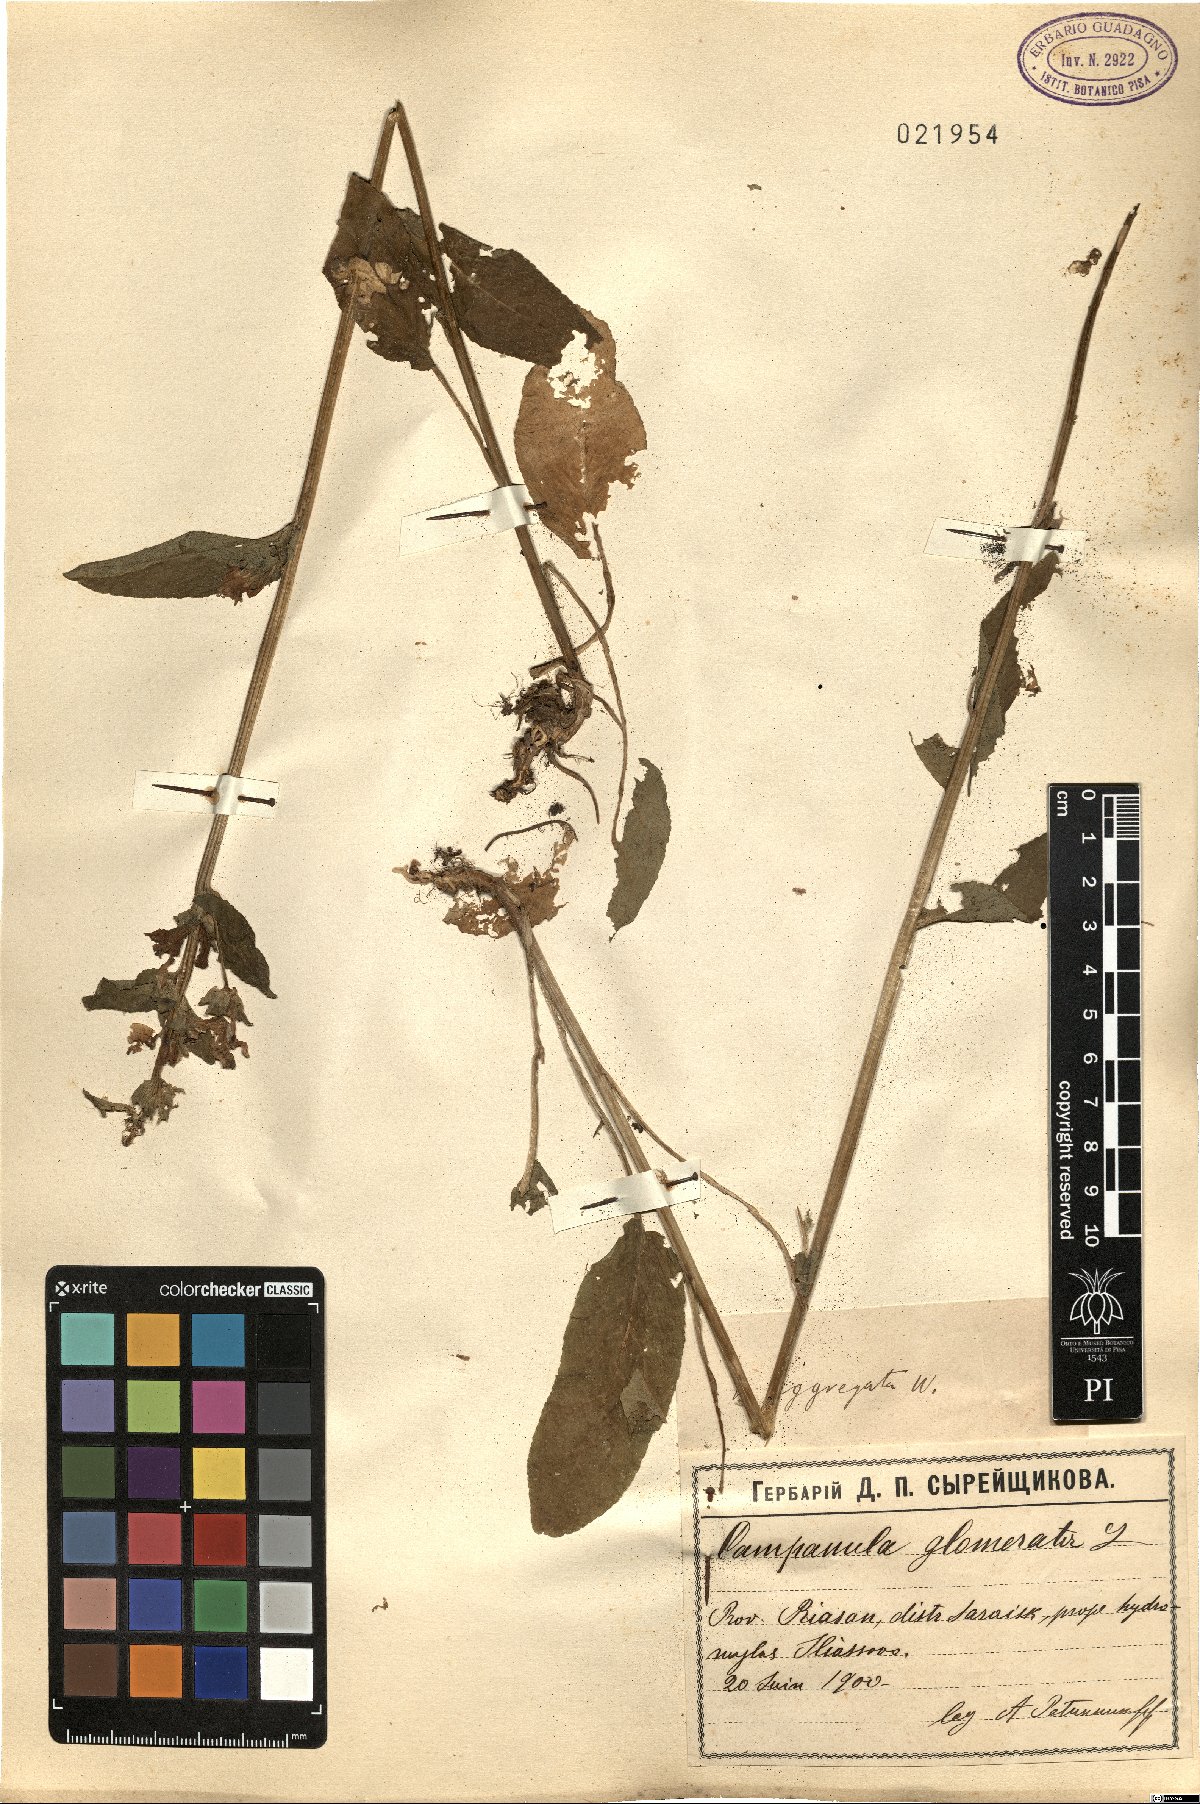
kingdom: Plantae
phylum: Tracheophyta
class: Magnoliopsida
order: Asterales
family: Campanulaceae
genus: Campanula
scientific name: Campanula glomerata
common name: Clustered bellflower
